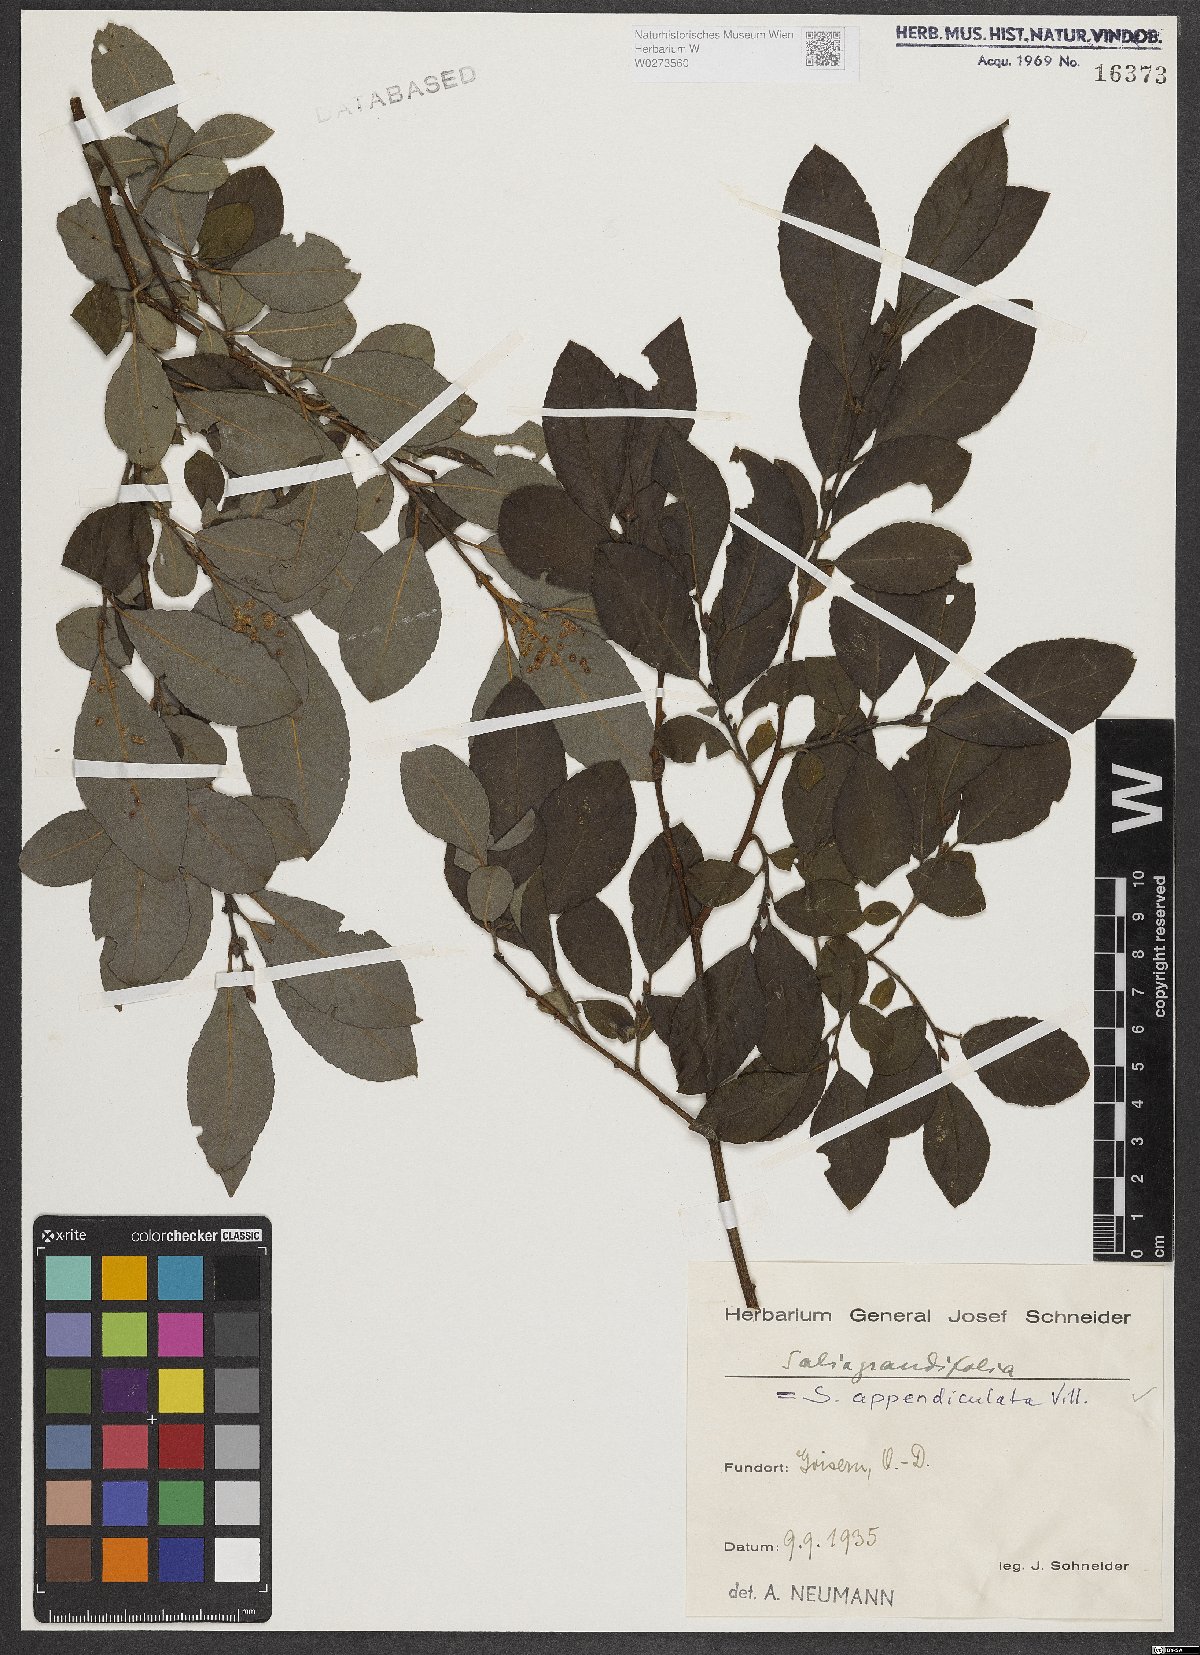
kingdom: Plantae
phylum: Tracheophyta
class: Magnoliopsida
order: Malpighiales
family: Salicaceae
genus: Salix
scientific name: Salix appendiculata
